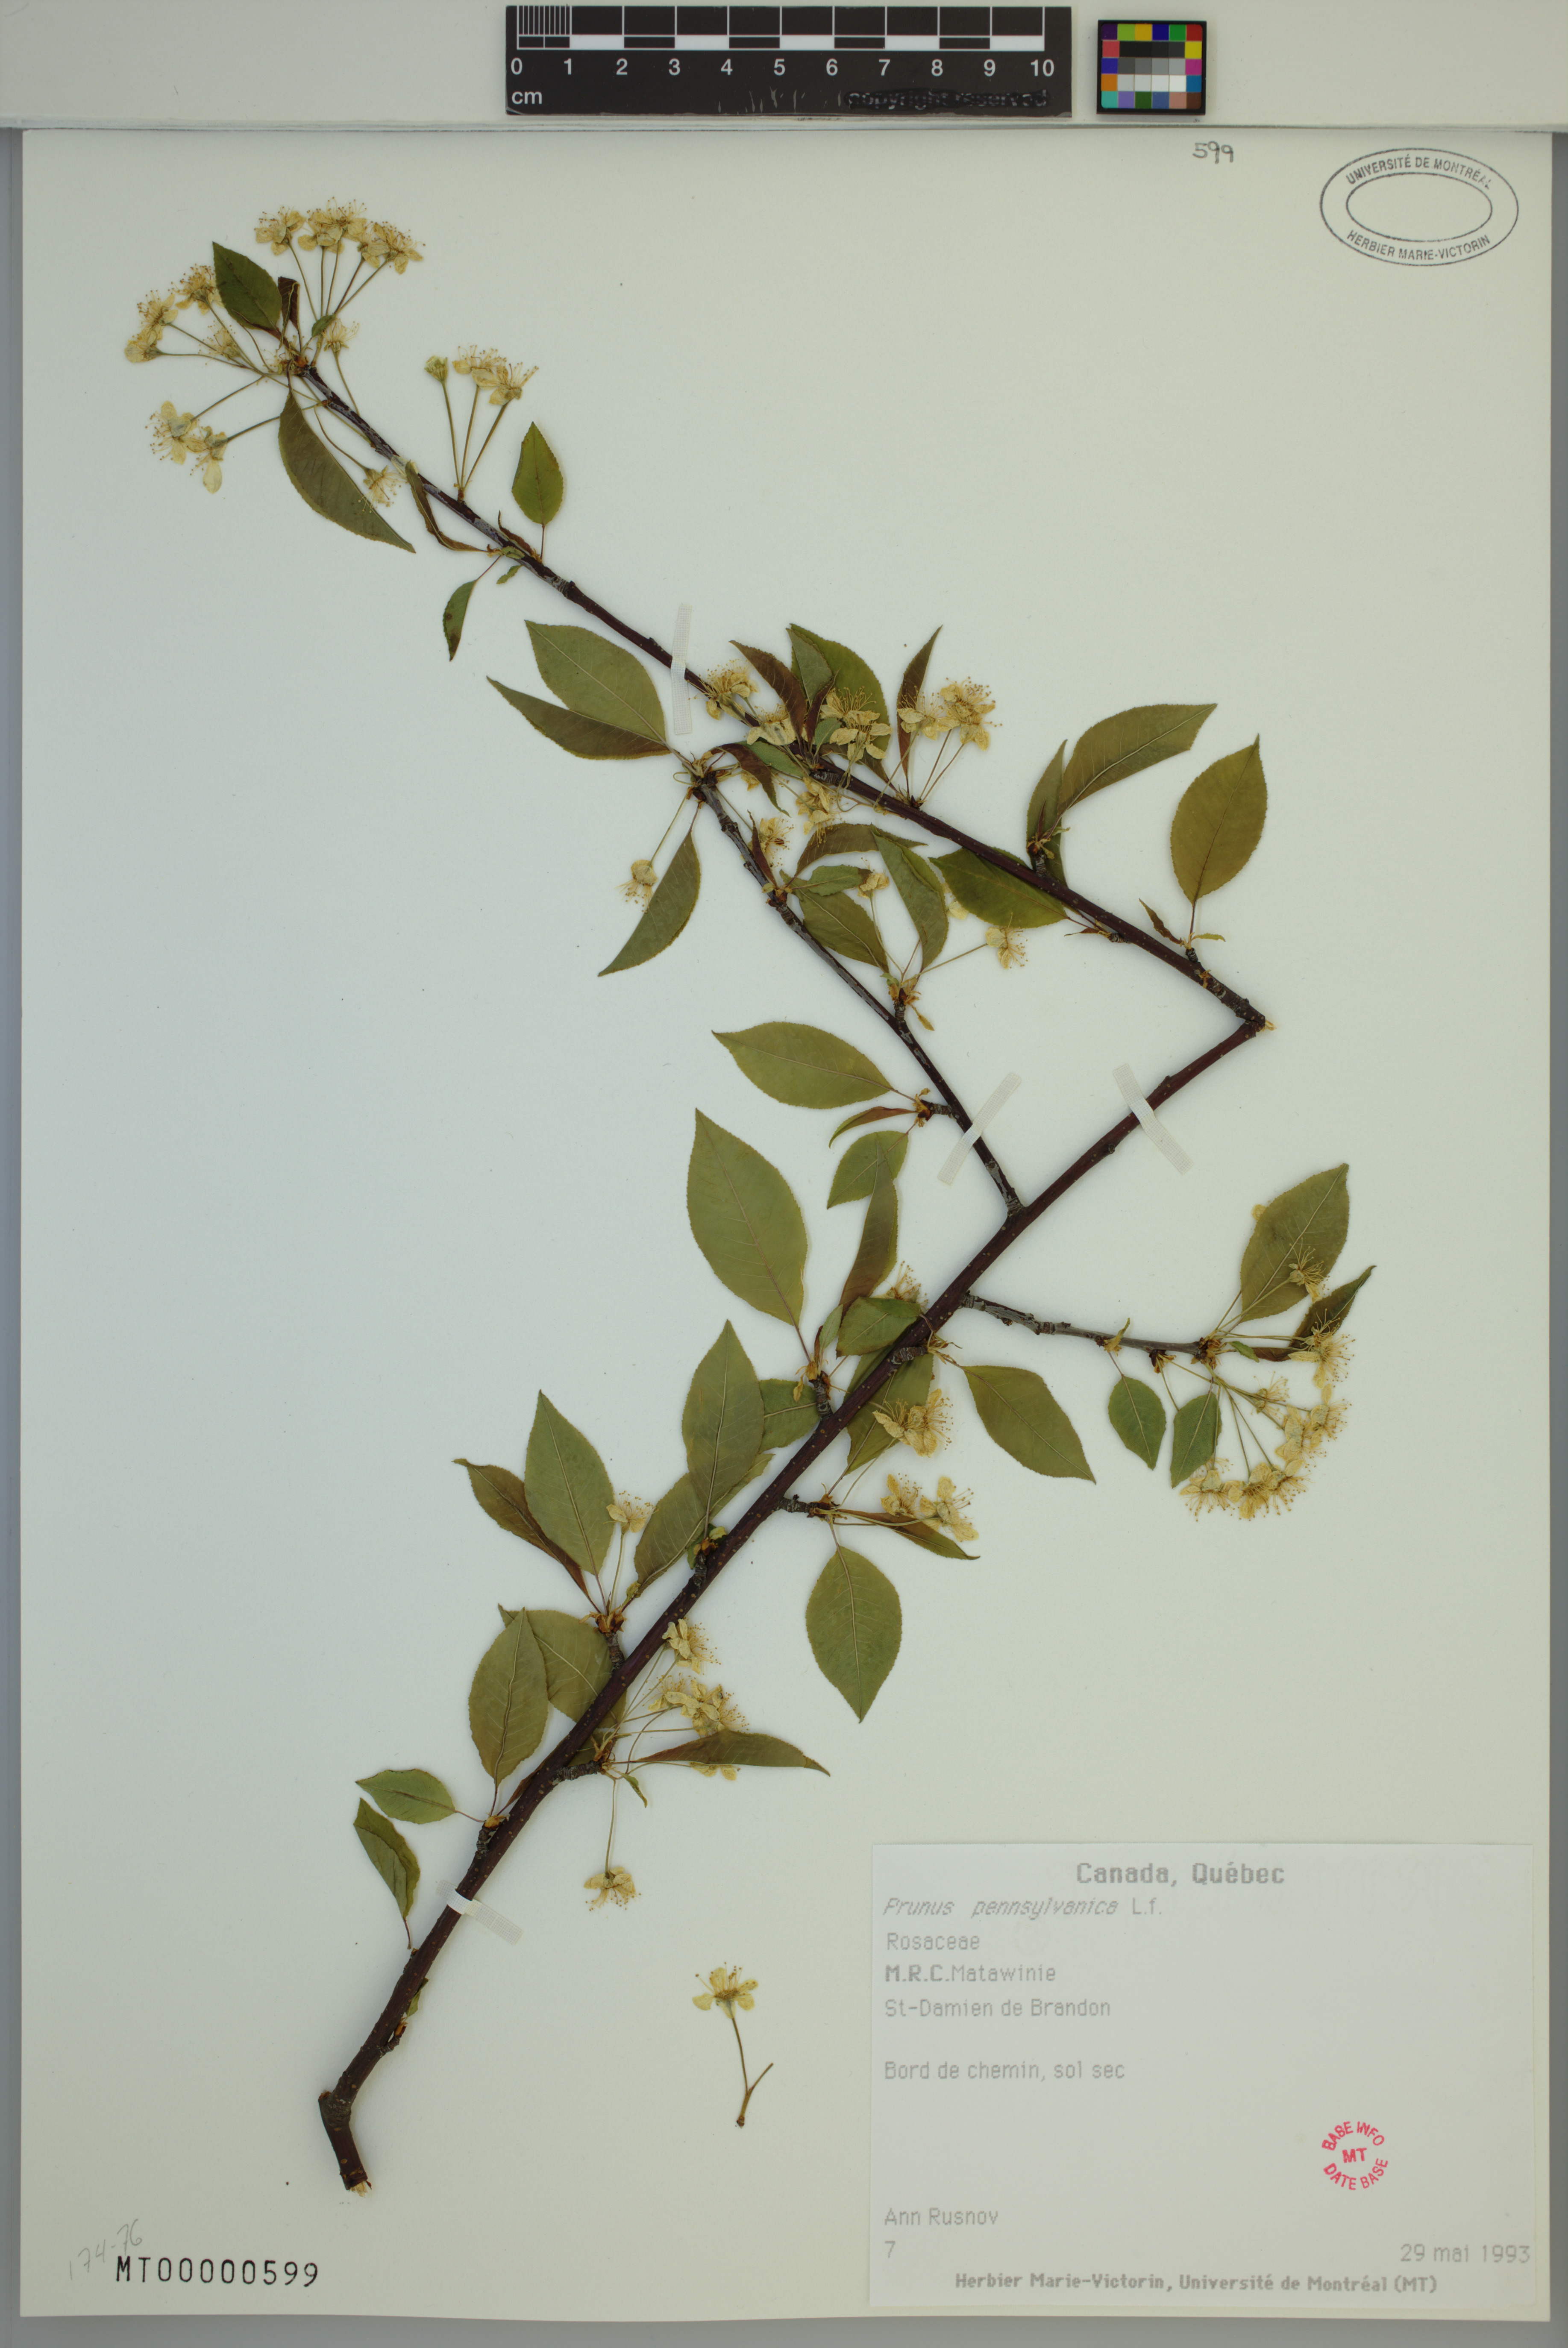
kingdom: Plantae
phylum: Tracheophyta
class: Magnoliopsida
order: Rosales
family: Rosaceae
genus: Prunus
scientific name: Prunus pensylvanica
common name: Pin cherry
